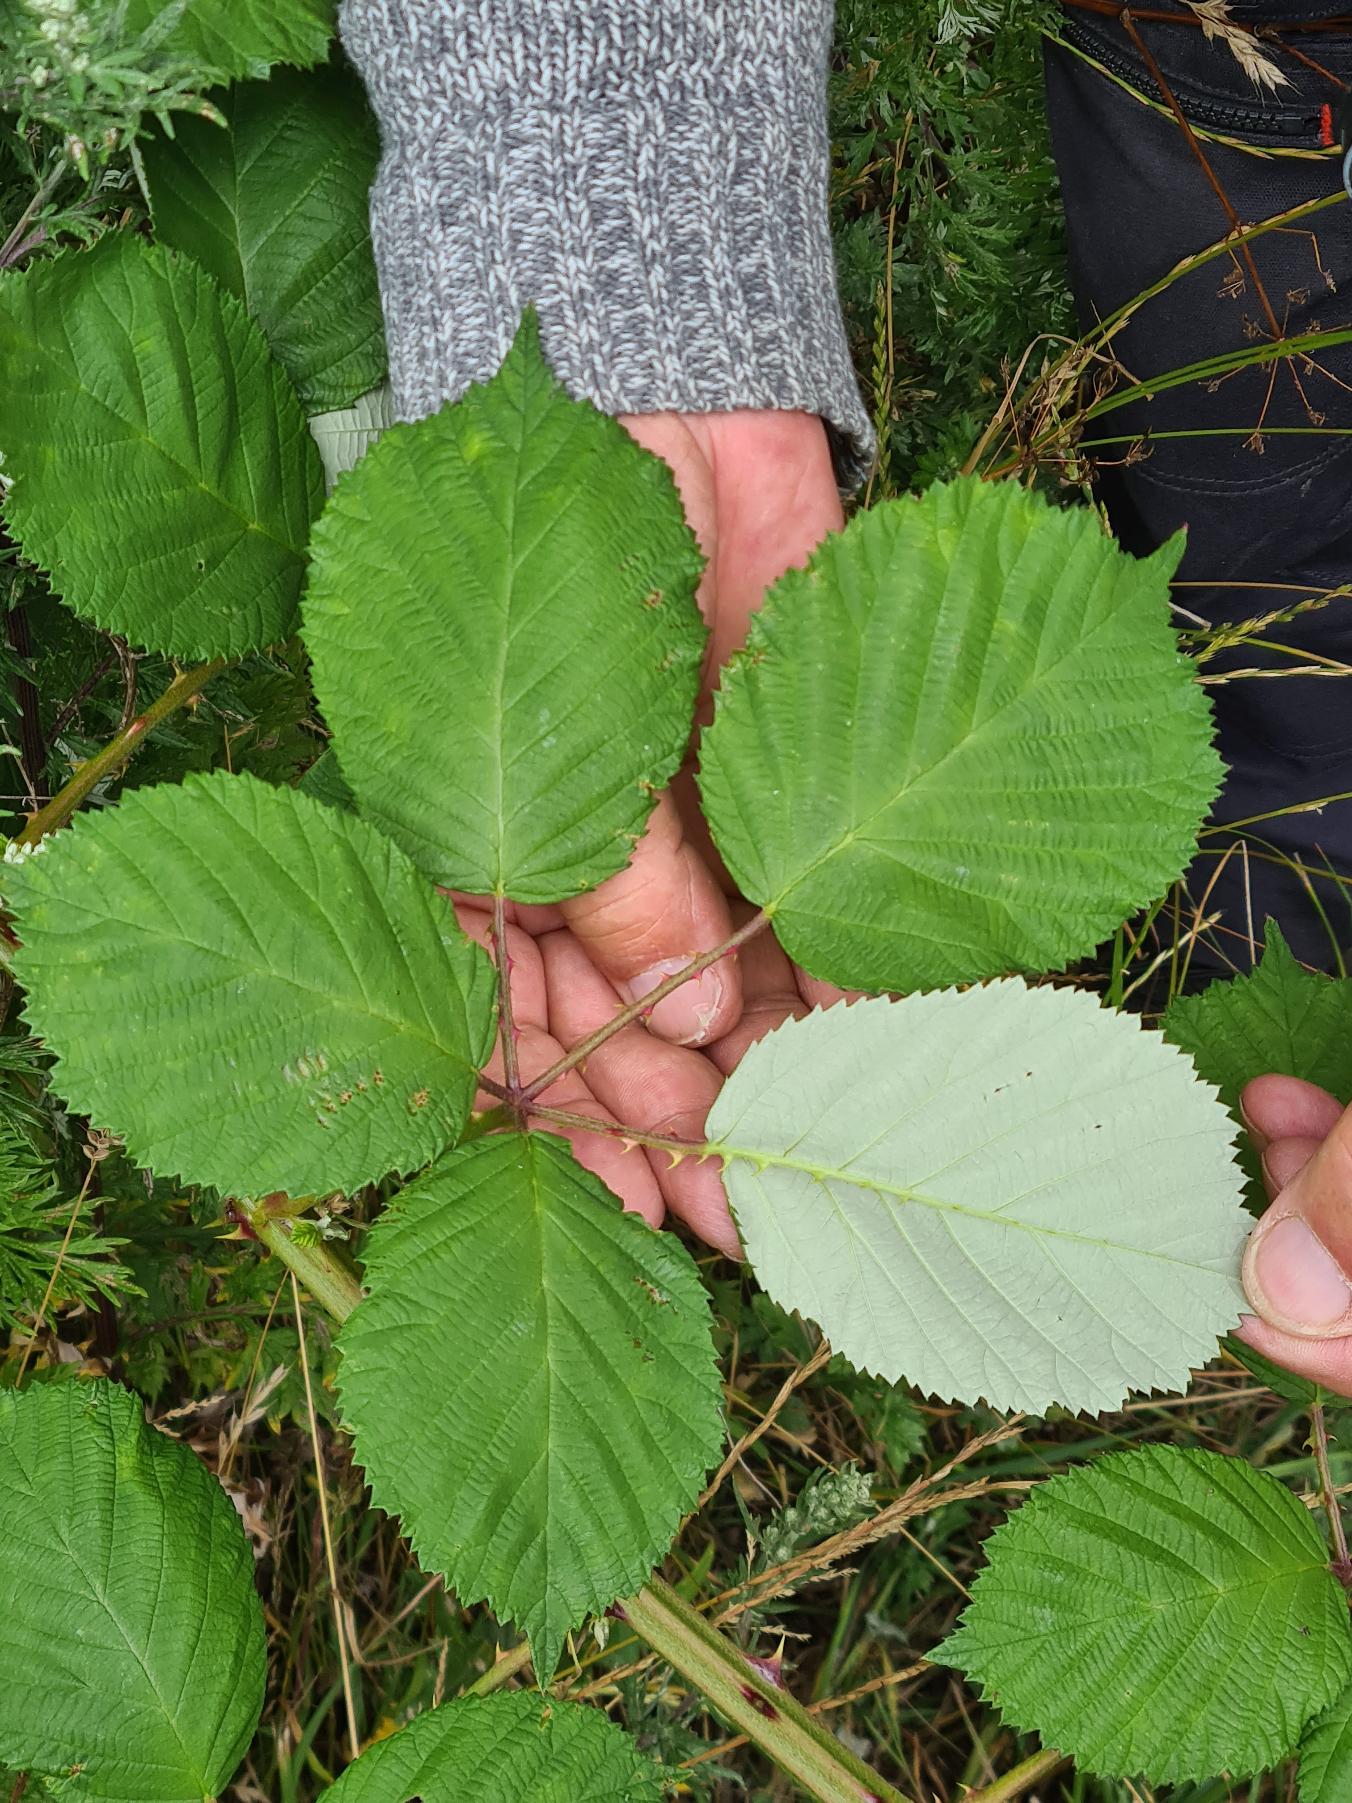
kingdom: Plantae
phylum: Tracheophyta
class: Magnoliopsida
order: Rosales
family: Rosaceae
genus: Rubus
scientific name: Rubus armeniacus
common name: Armensk brombær
